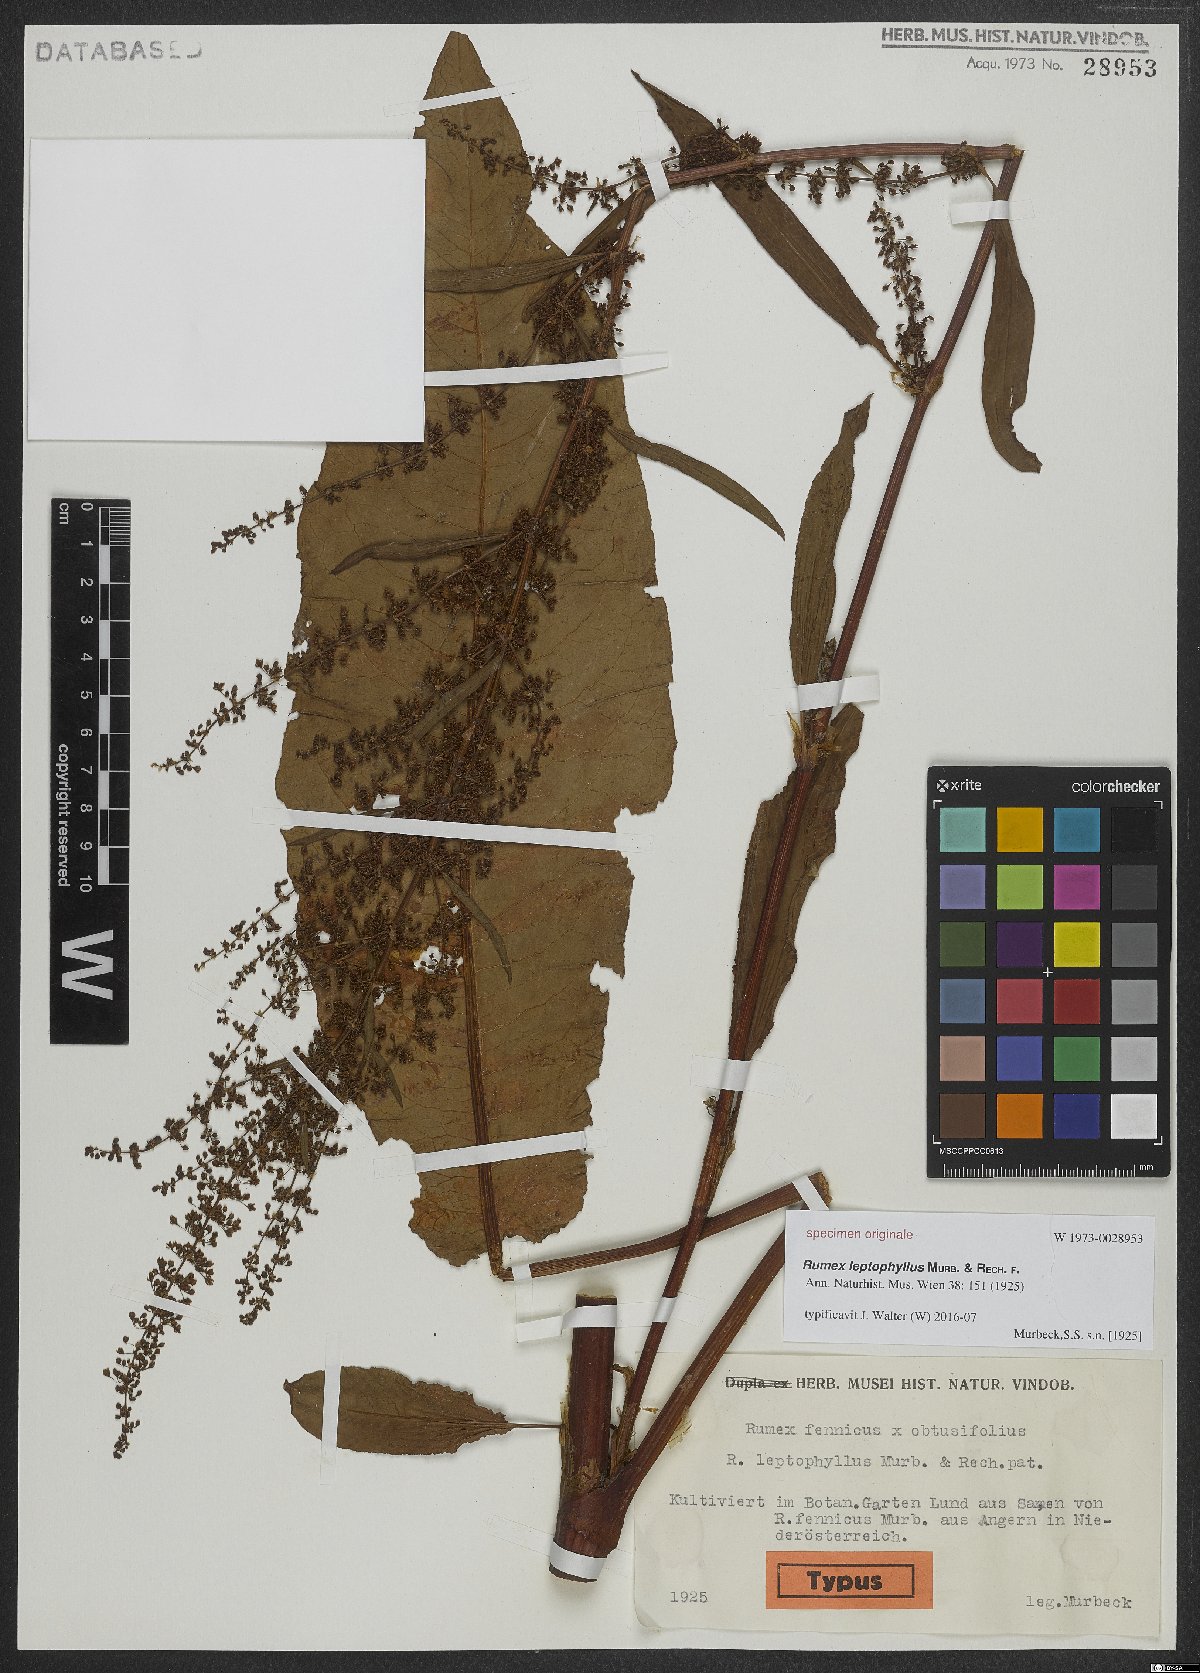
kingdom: Plantae
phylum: Tracheophyta
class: Magnoliopsida
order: Caryophyllales
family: Polygonaceae
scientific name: Polygonaceae
